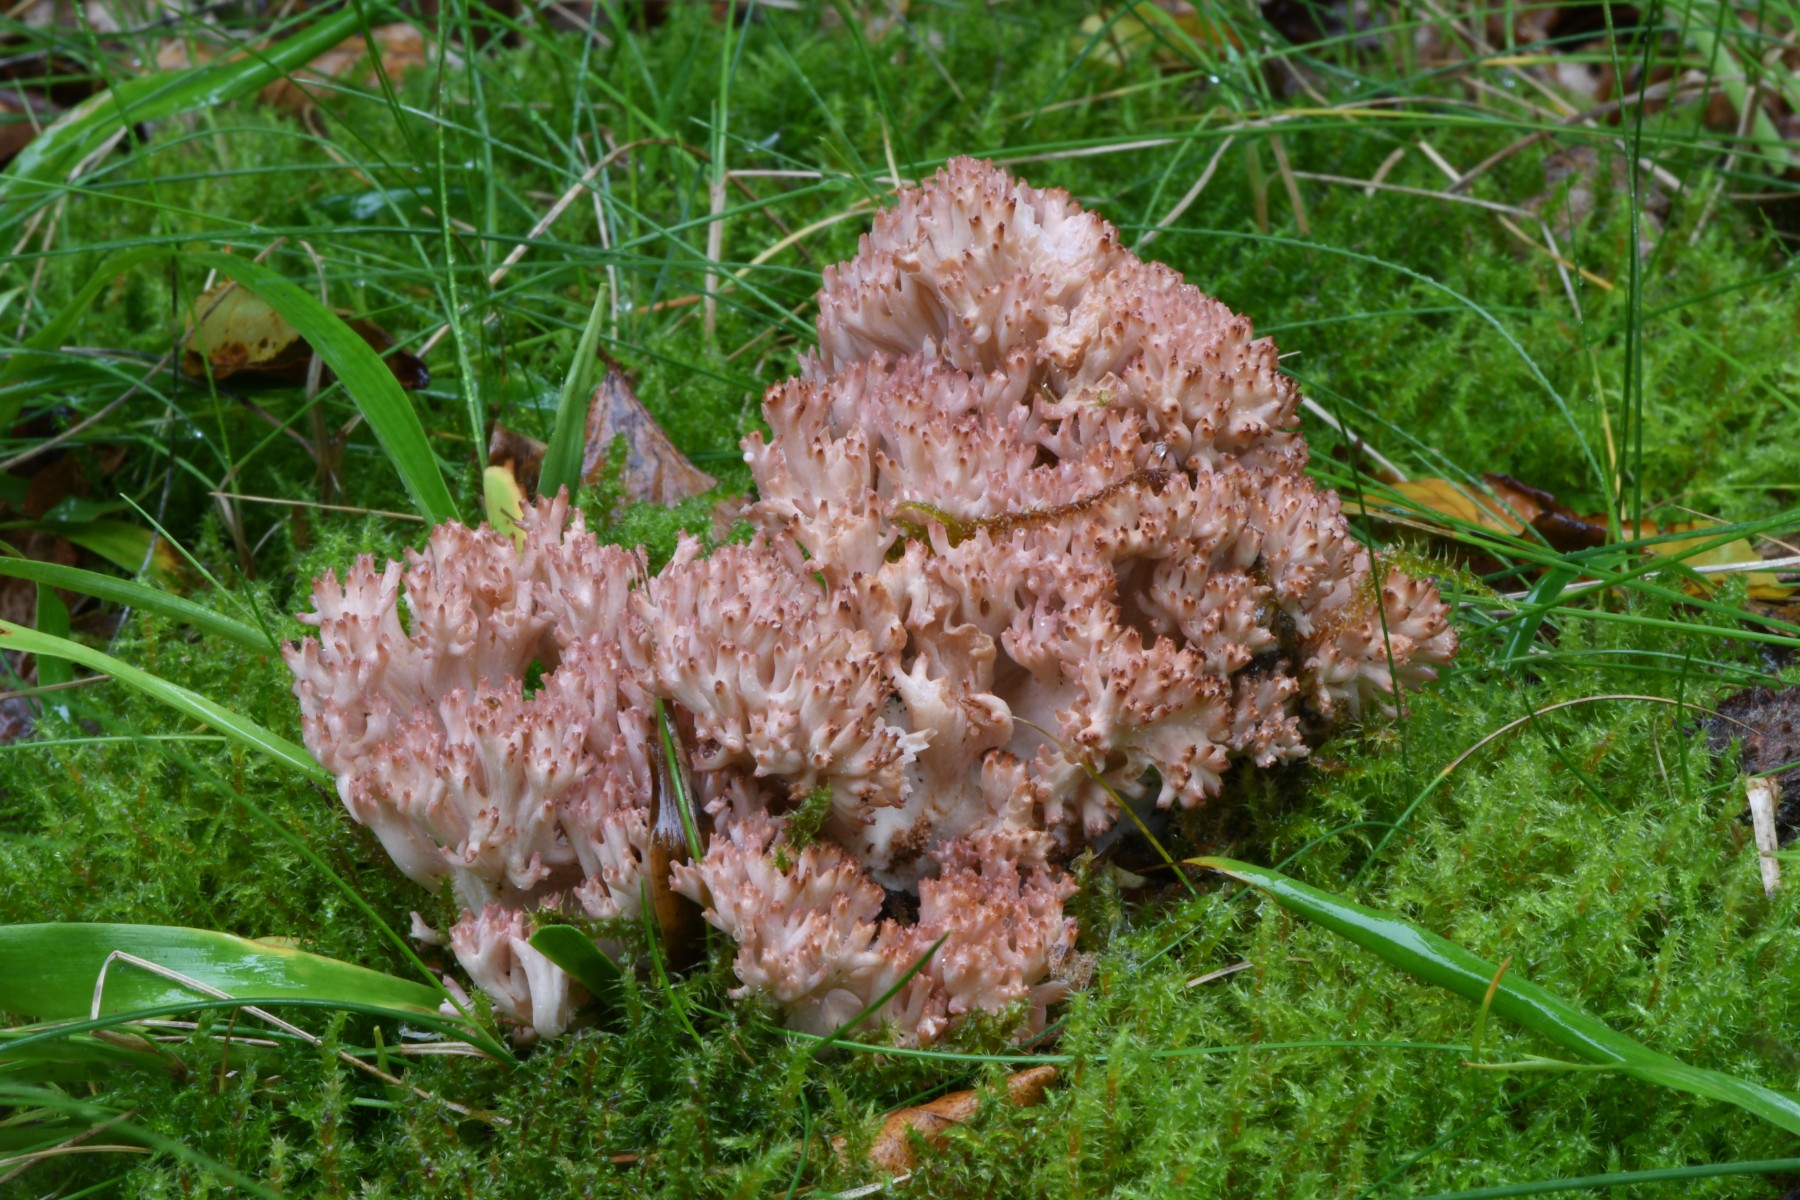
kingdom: Fungi
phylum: Basidiomycota
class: Agaricomycetes
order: Gomphales
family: Gomphaceae
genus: Ramaria
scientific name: Ramaria botrytis
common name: drue-koralsvamp
